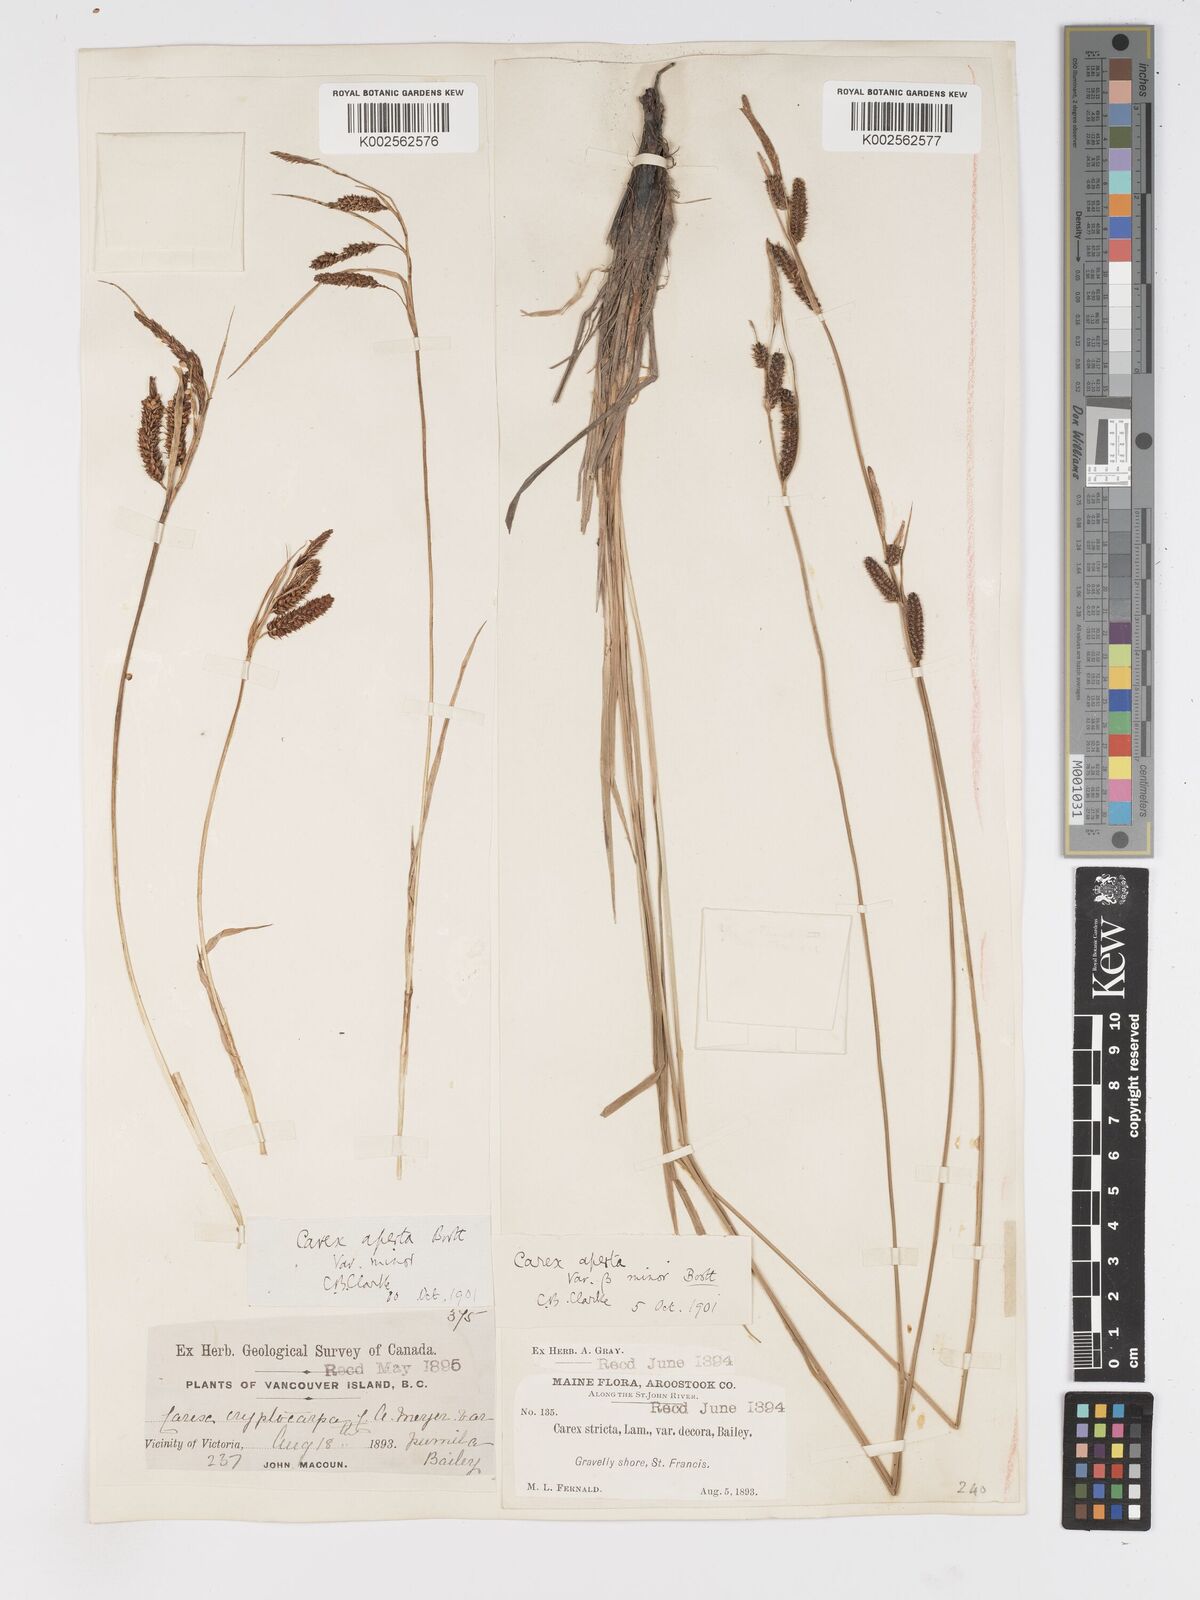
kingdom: Plantae
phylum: Tracheophyta
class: Liliopsida
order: Poales
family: Cyperaceae
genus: Carex
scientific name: Carex haydenii
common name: Hayden's sedge
